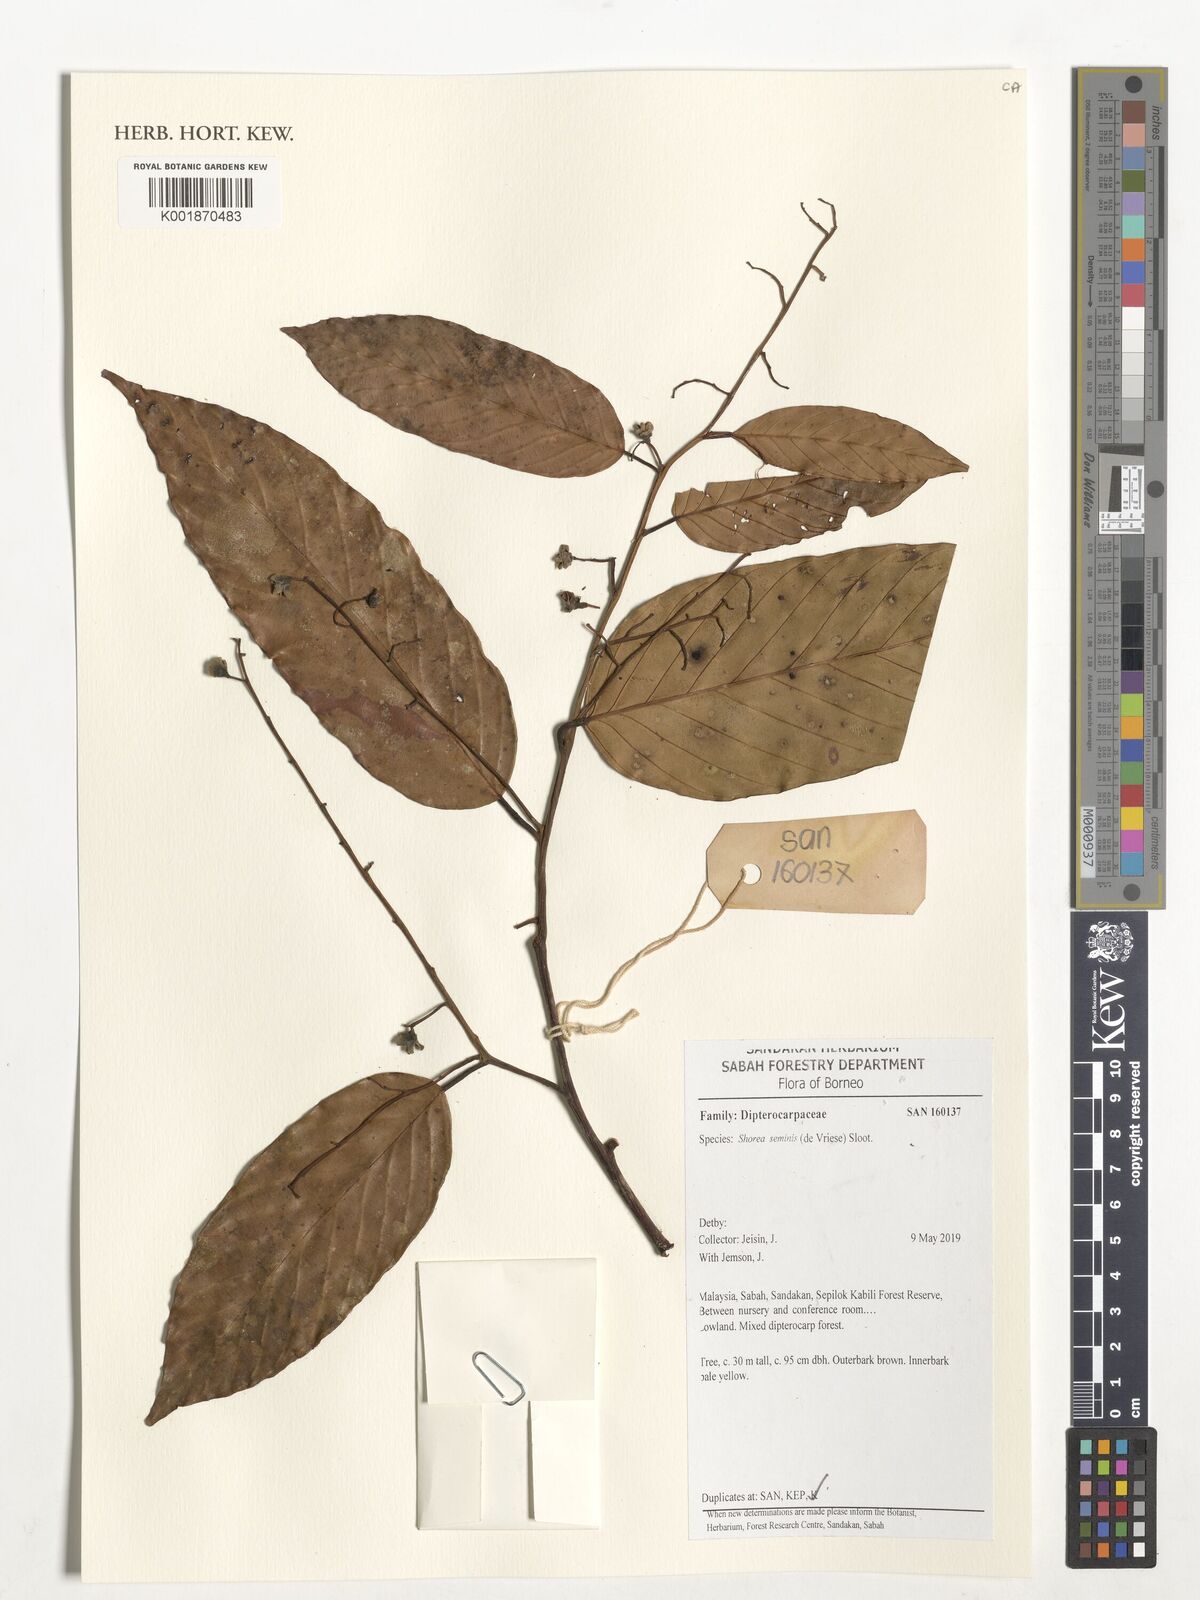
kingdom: Plantae
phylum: Tracheophyta
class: Magnoliopsida
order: Malvales
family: Dipterocarpaceae
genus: Shorea
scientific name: Shorea seminis
